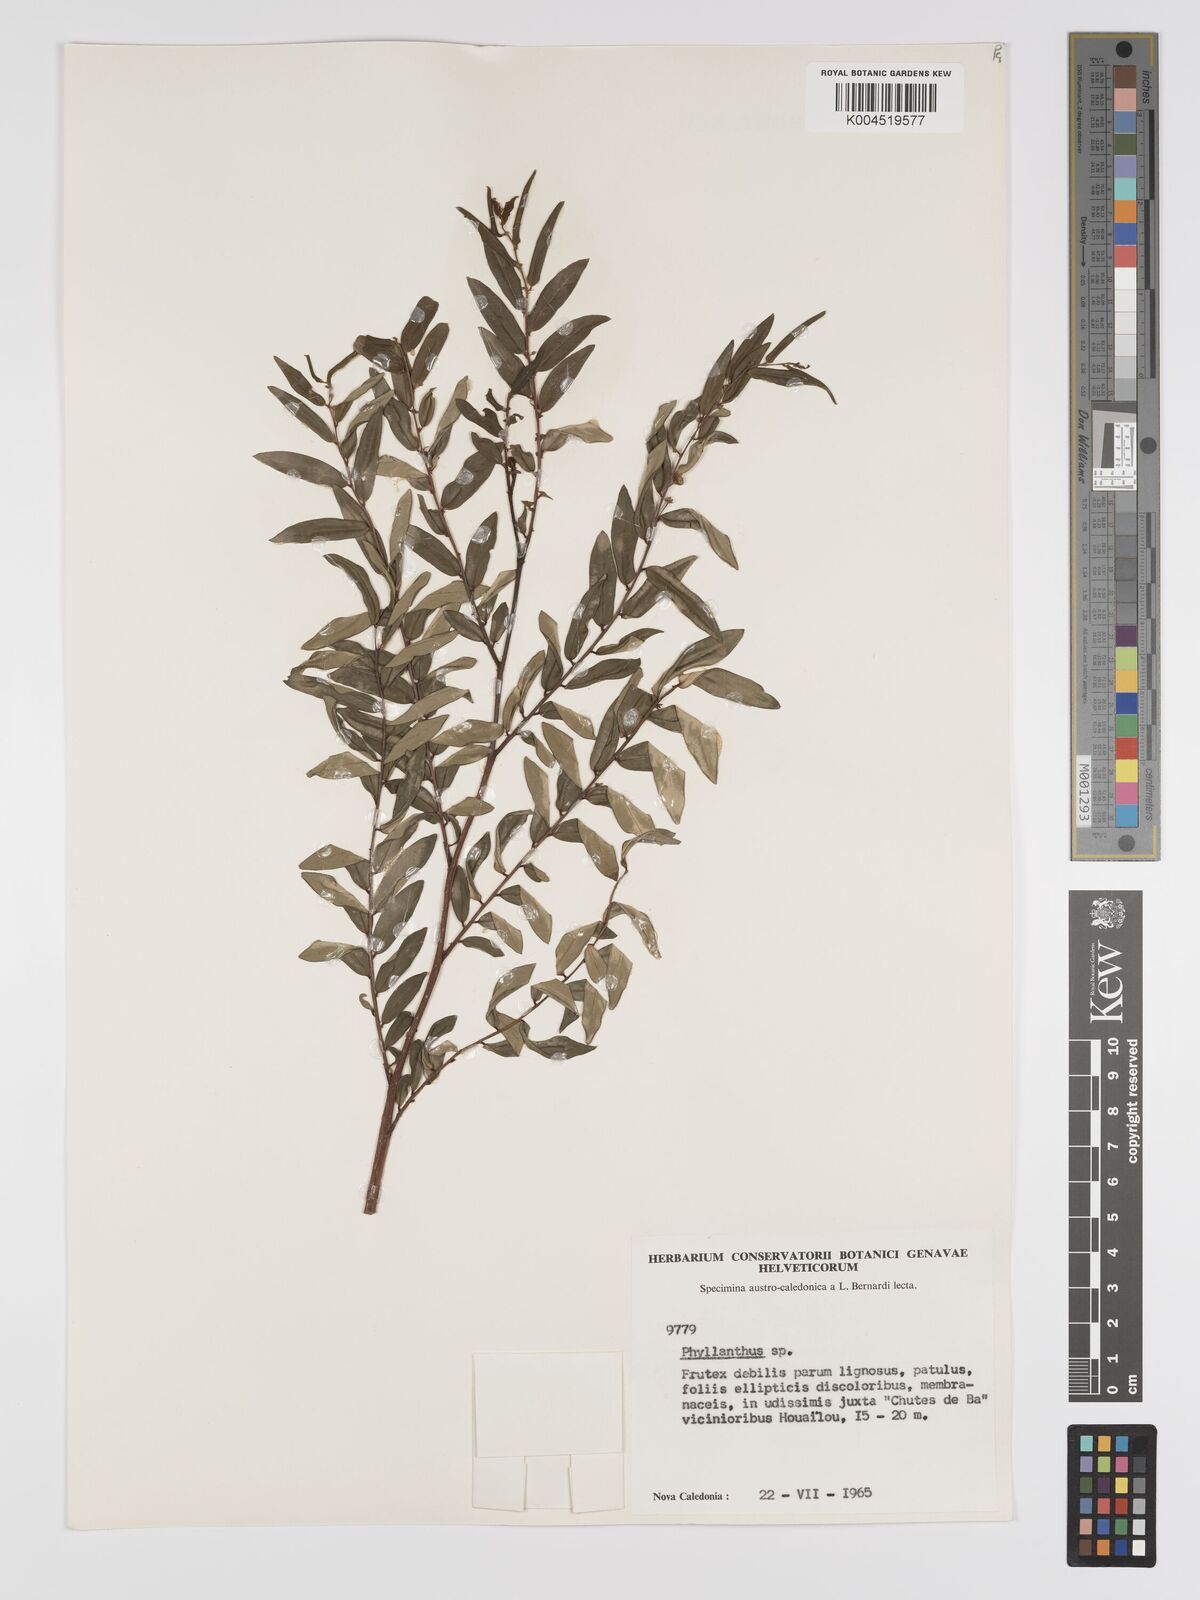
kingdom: Plantae
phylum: Tracheophyta
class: Magnoliopsida
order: Malpighiales
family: Phyllanthaceae
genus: Phyllanthus
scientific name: Phyllanthus bourgeoisii
